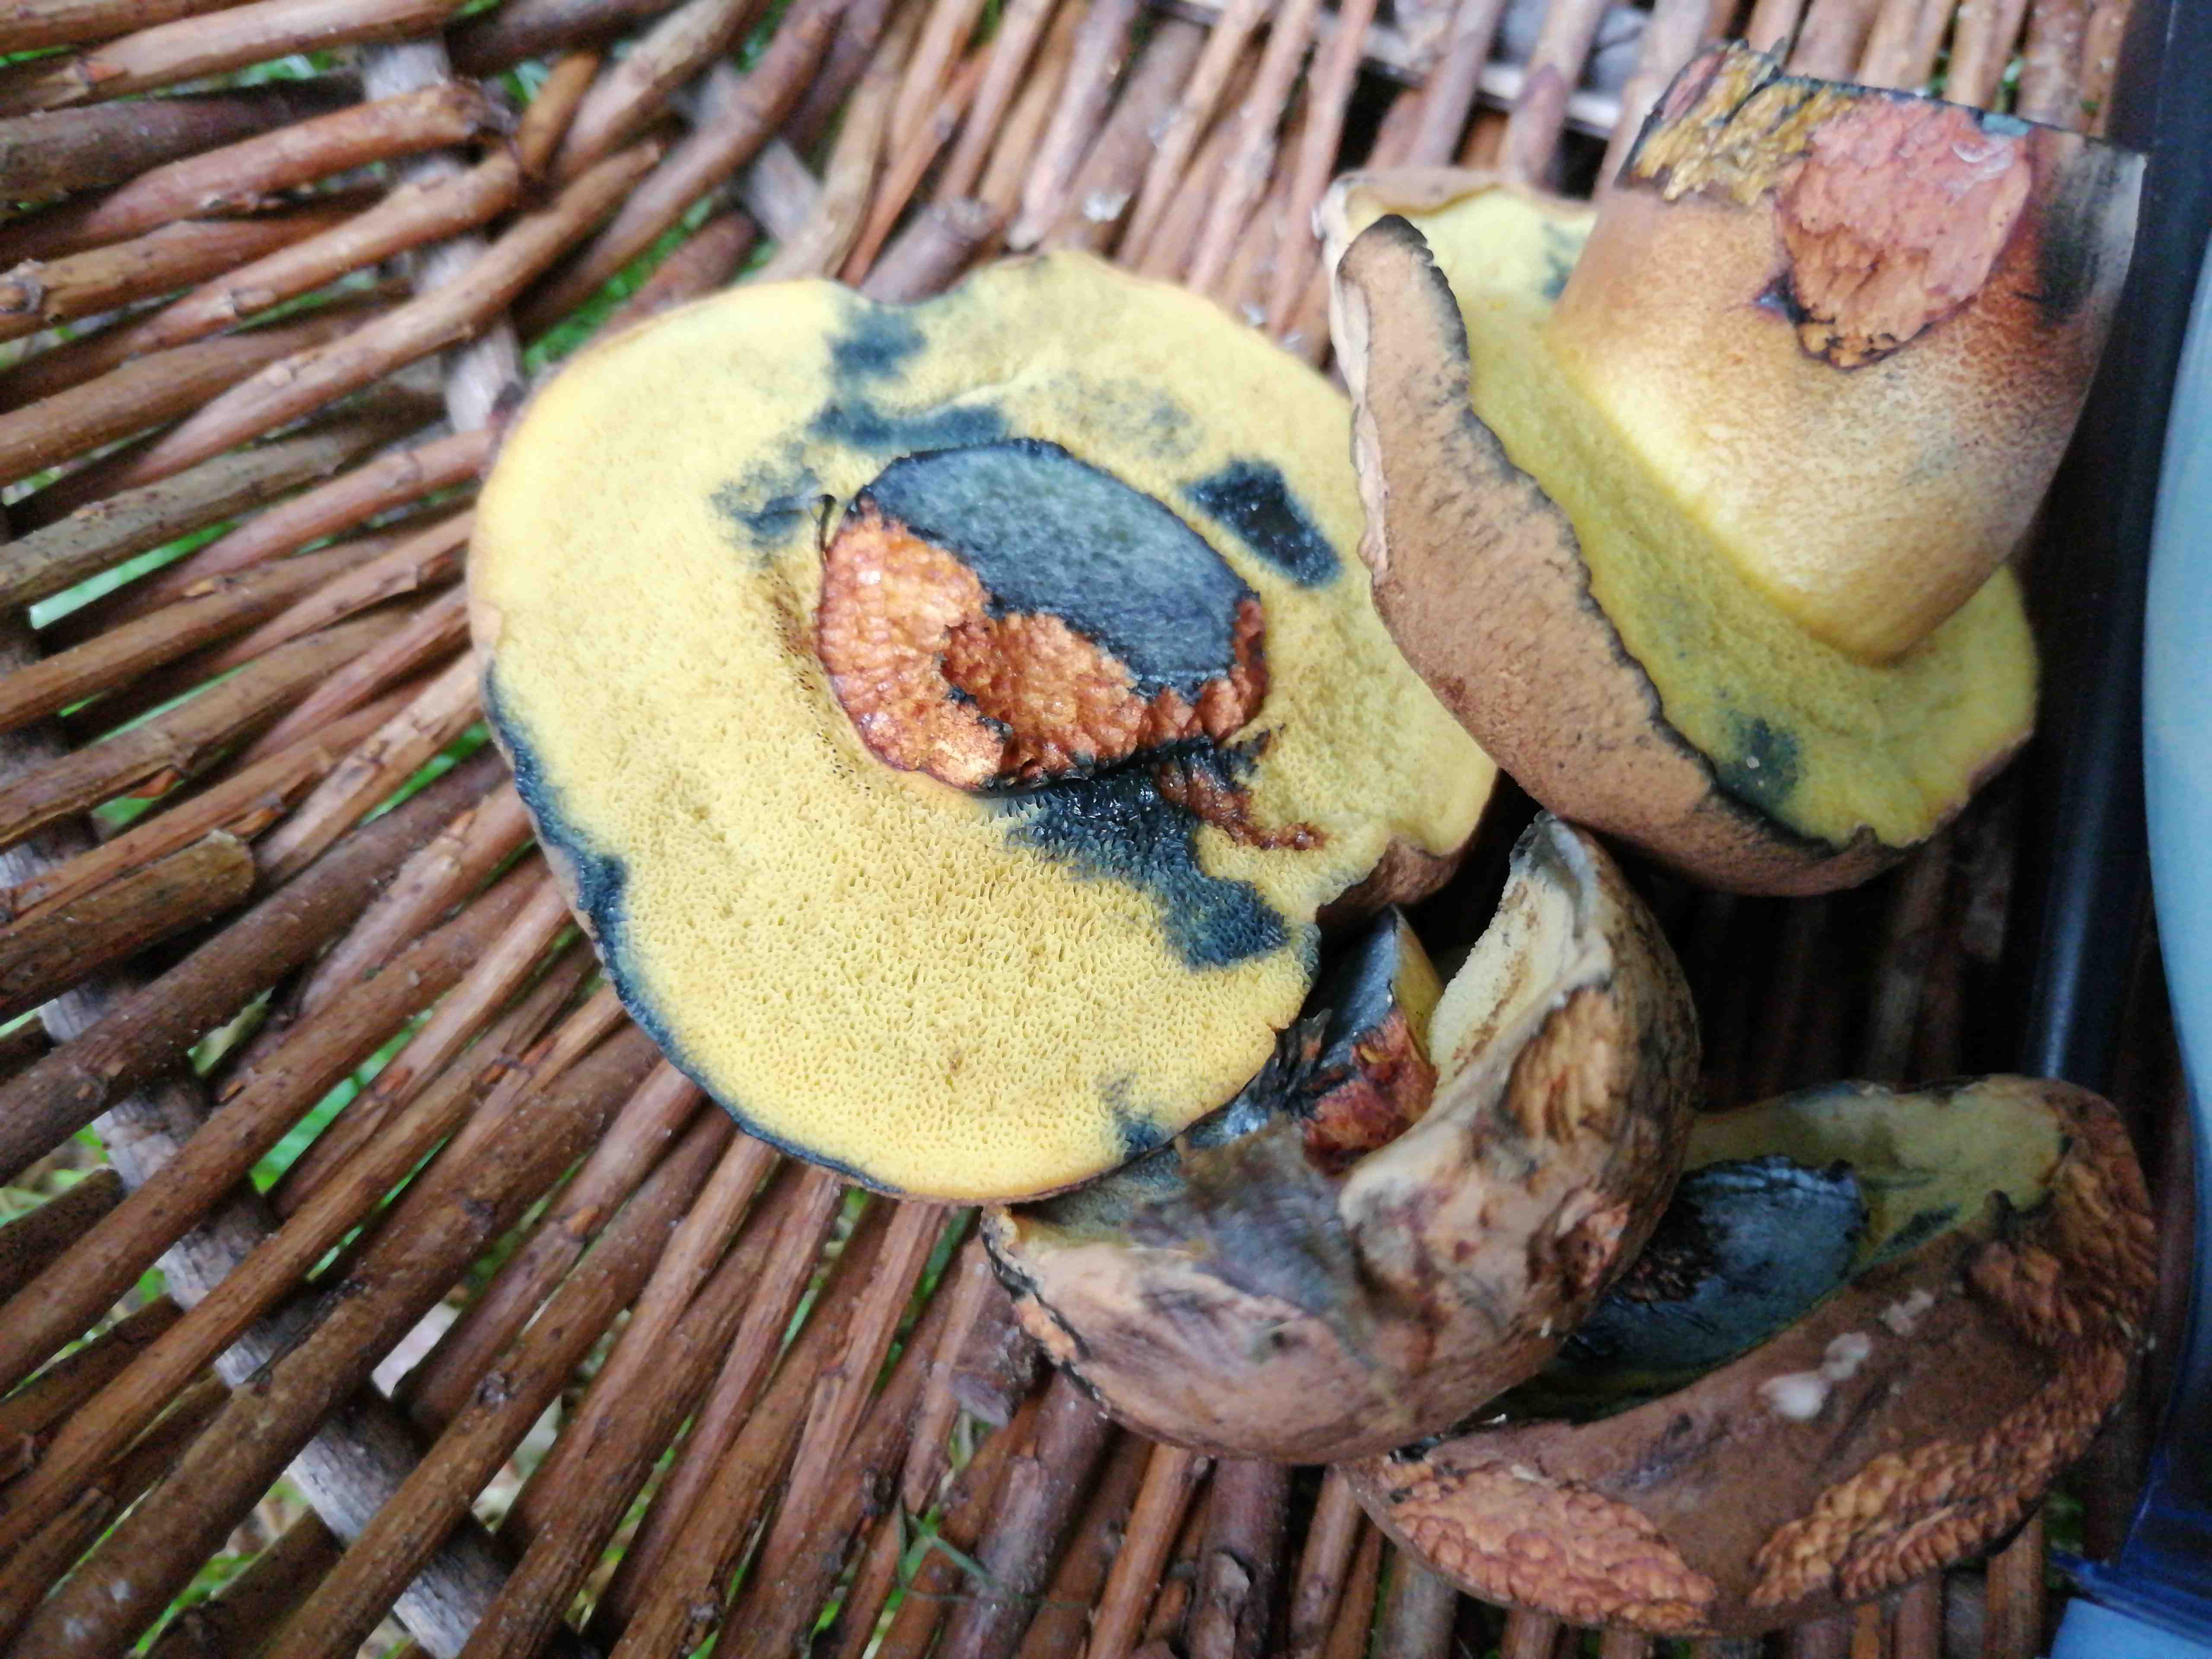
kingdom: Fungi
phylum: Basidiomycota
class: Agaricomycetes
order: Boletales
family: Boletaceae
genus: Cyanoboletus
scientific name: Cyanoboletus pulverulentus
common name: sortblånende rørhat
